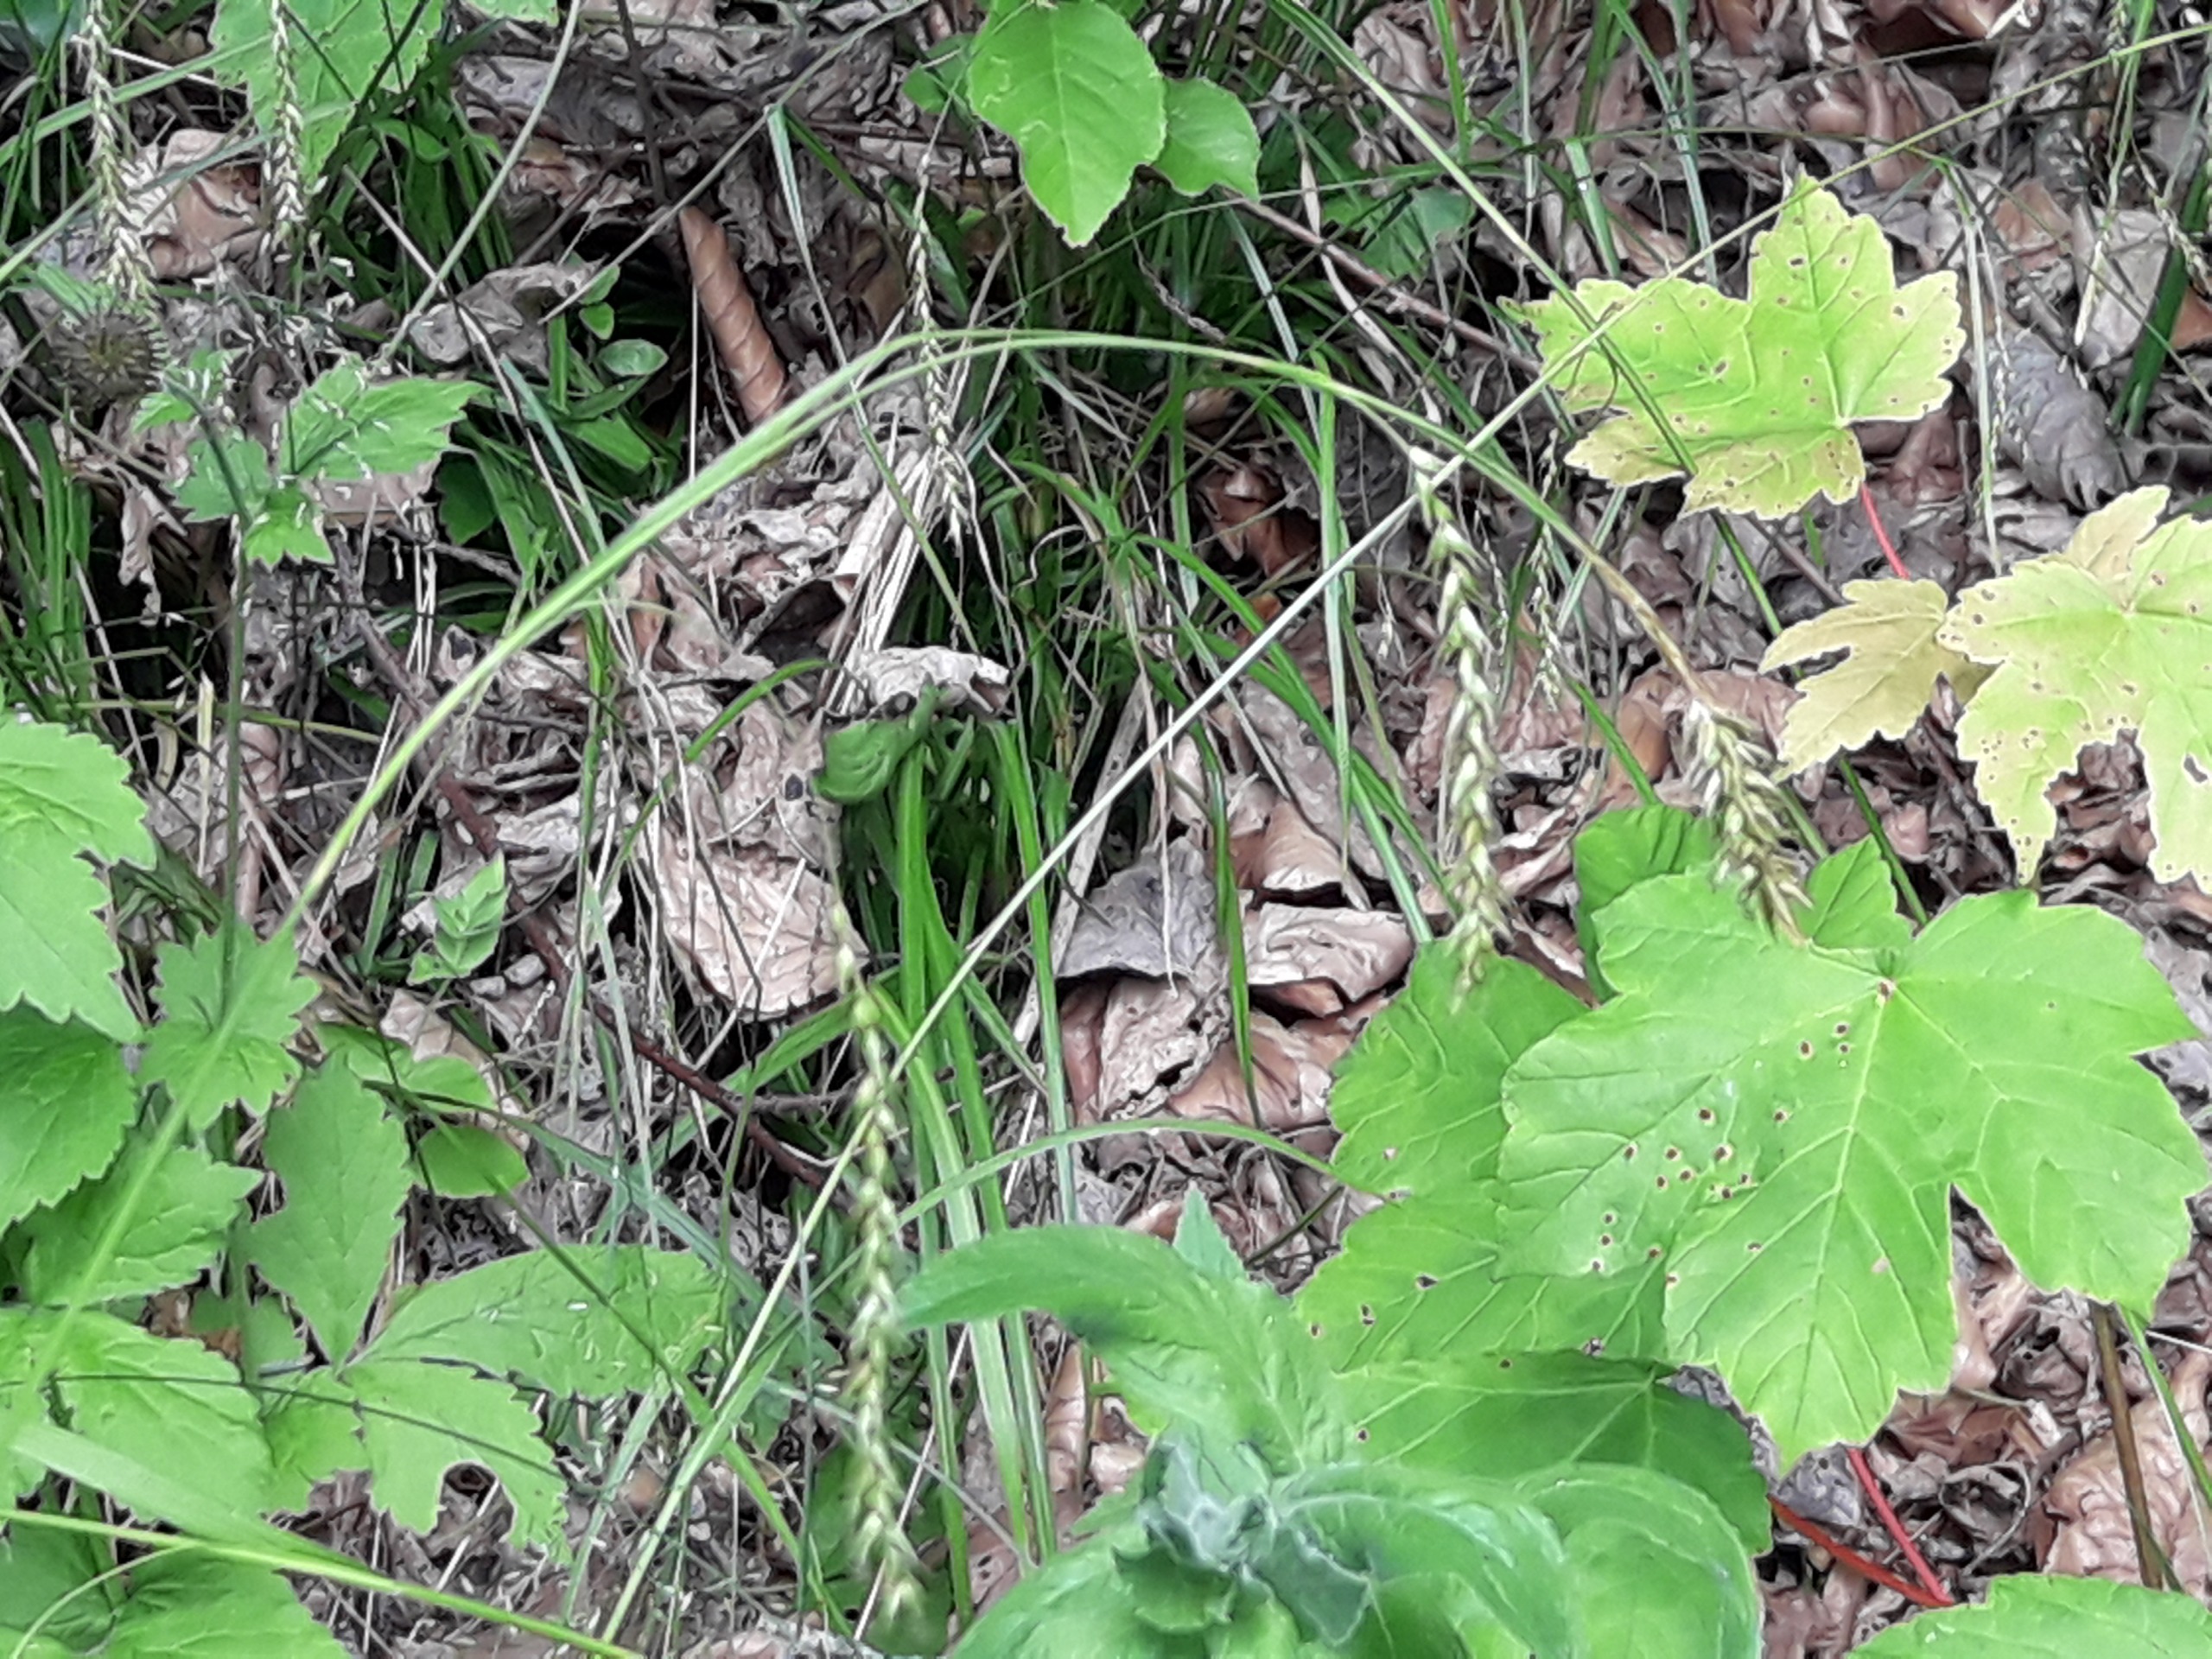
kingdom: Plantae
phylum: Tracheophyta
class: Liliopsida
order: Poales
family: Cyperaceae
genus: Carex
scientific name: Carex sylvatica
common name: Skov-star
